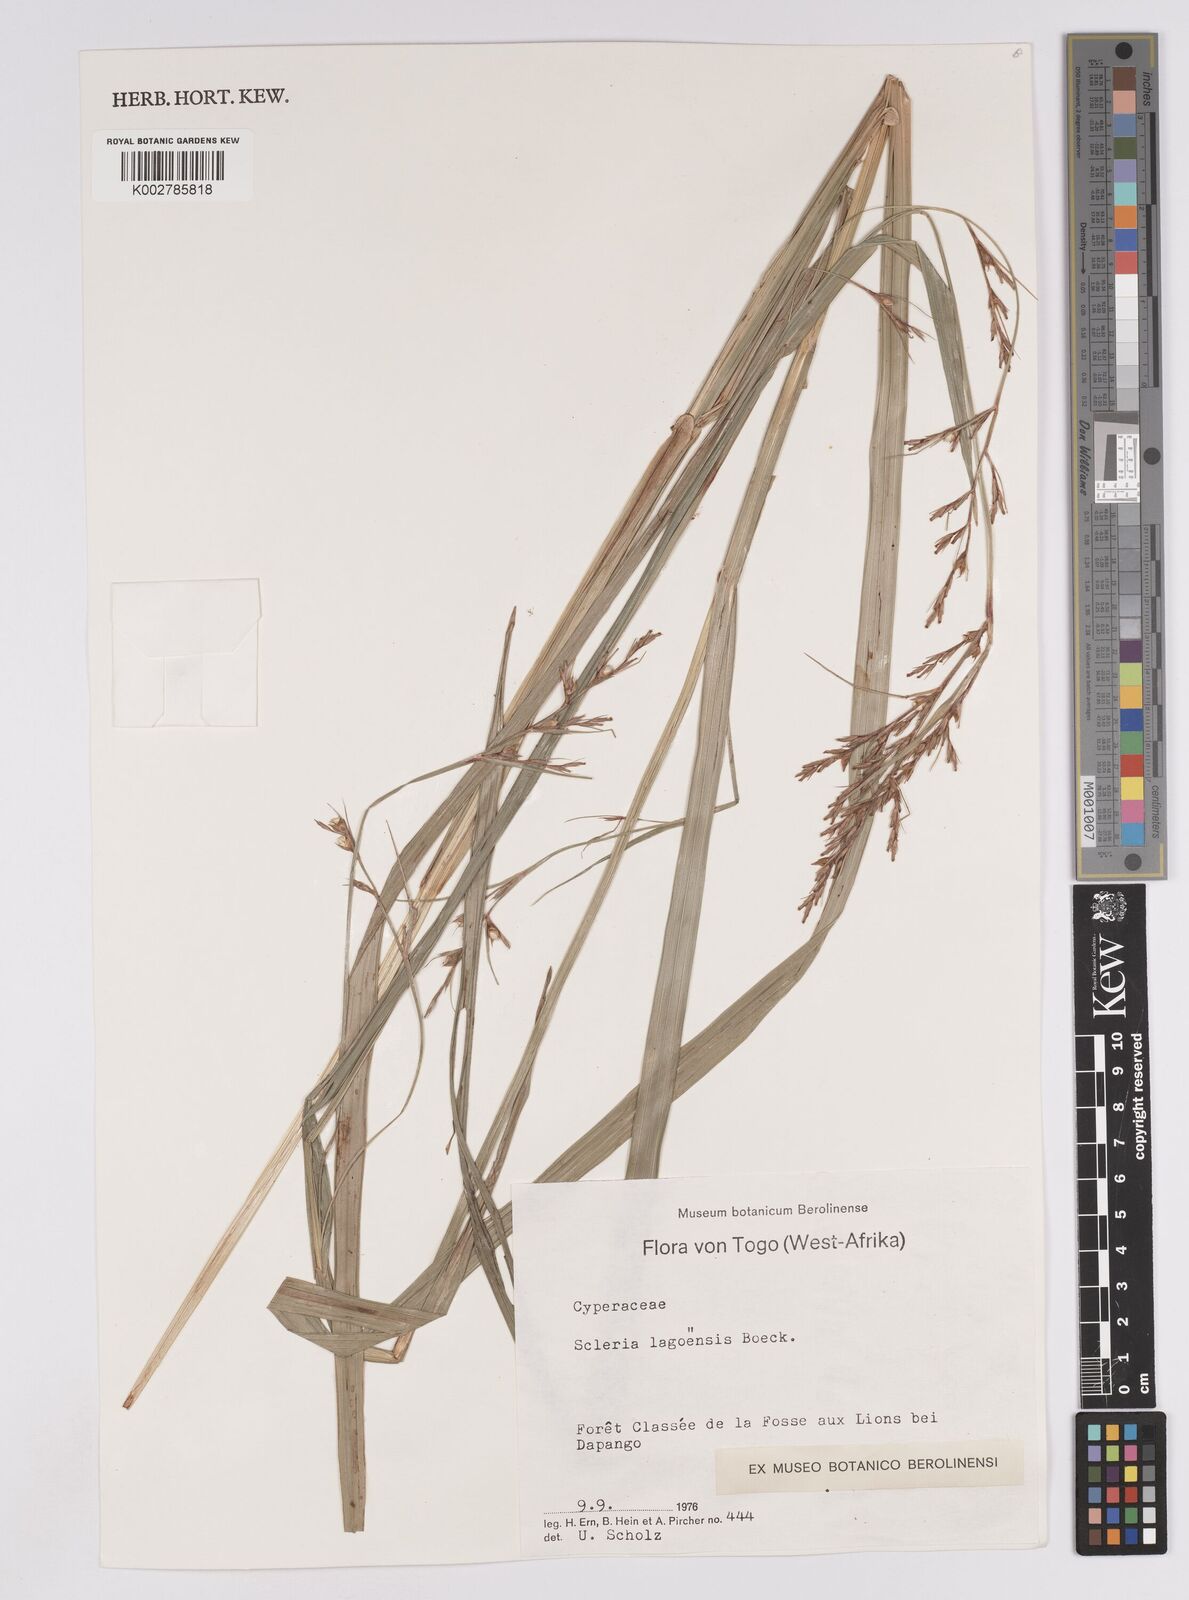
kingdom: Plantae
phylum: Tracheophyta
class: Liliopsida
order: Poales
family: Cyperaceae
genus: Scleria
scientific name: Scleria lagoensis
